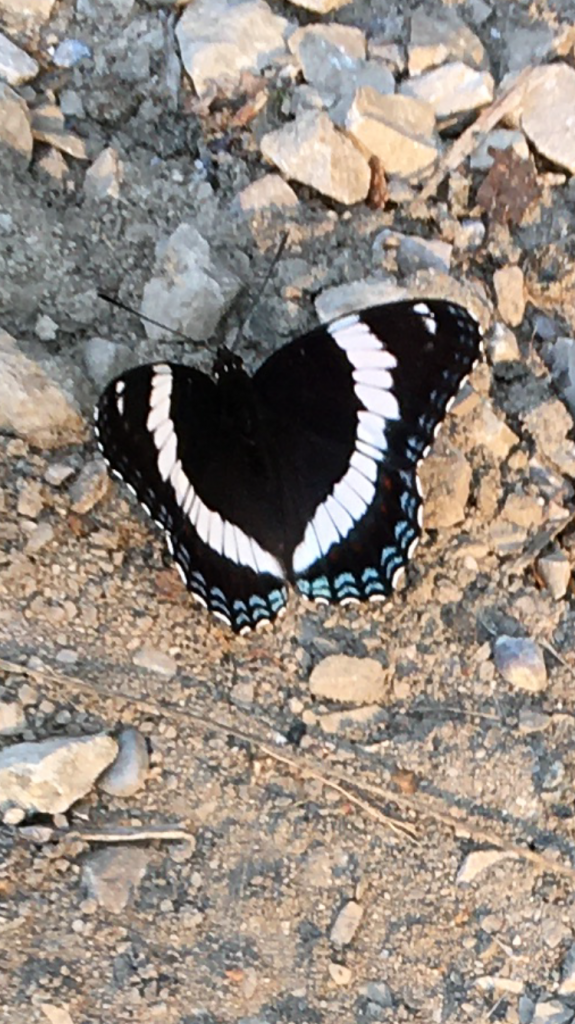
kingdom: Animalia
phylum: Arthropoda
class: Insecta
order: Lepidoptera
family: Nymphalidae
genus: Limenitis
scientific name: Limenitis arthemis
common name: Red-spotted Admiral
